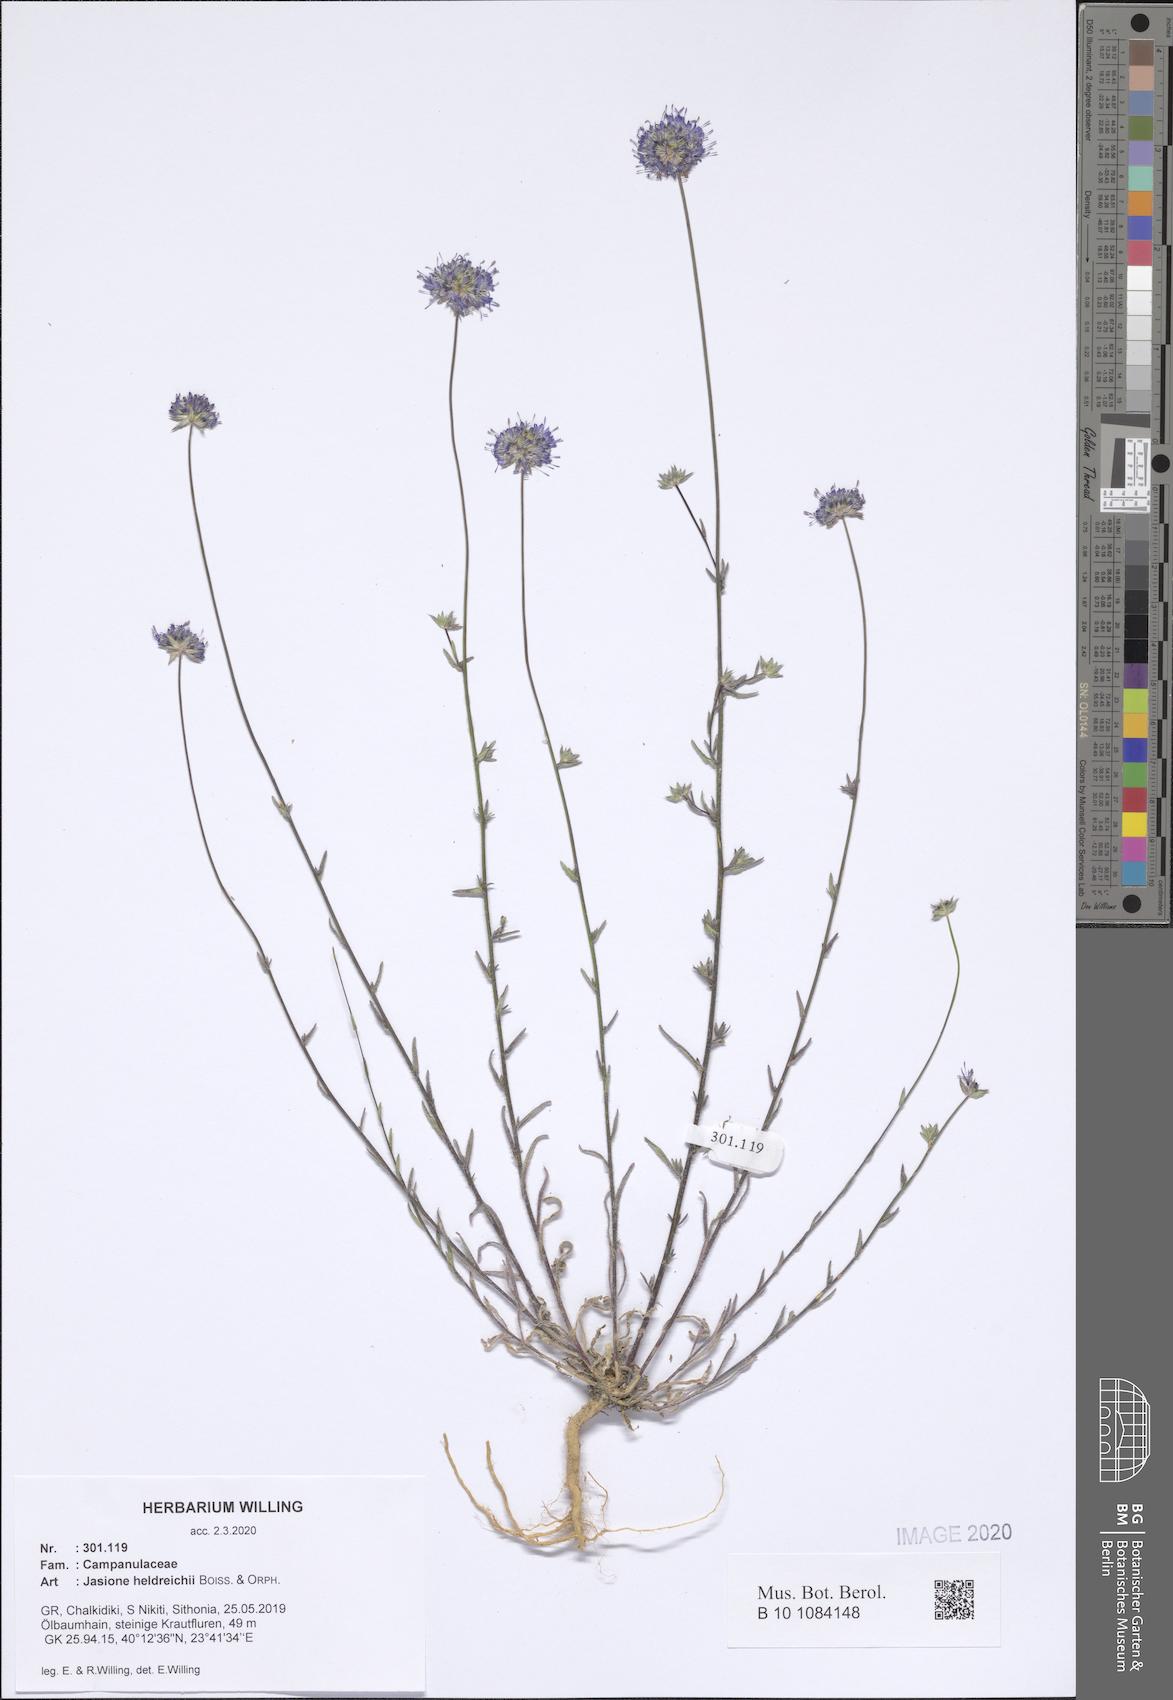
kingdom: Plantae
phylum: Tracheophyta
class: Magnoliopsida
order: Asterales
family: Campanulaceae
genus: Jasione
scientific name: Jasione heldreichii
